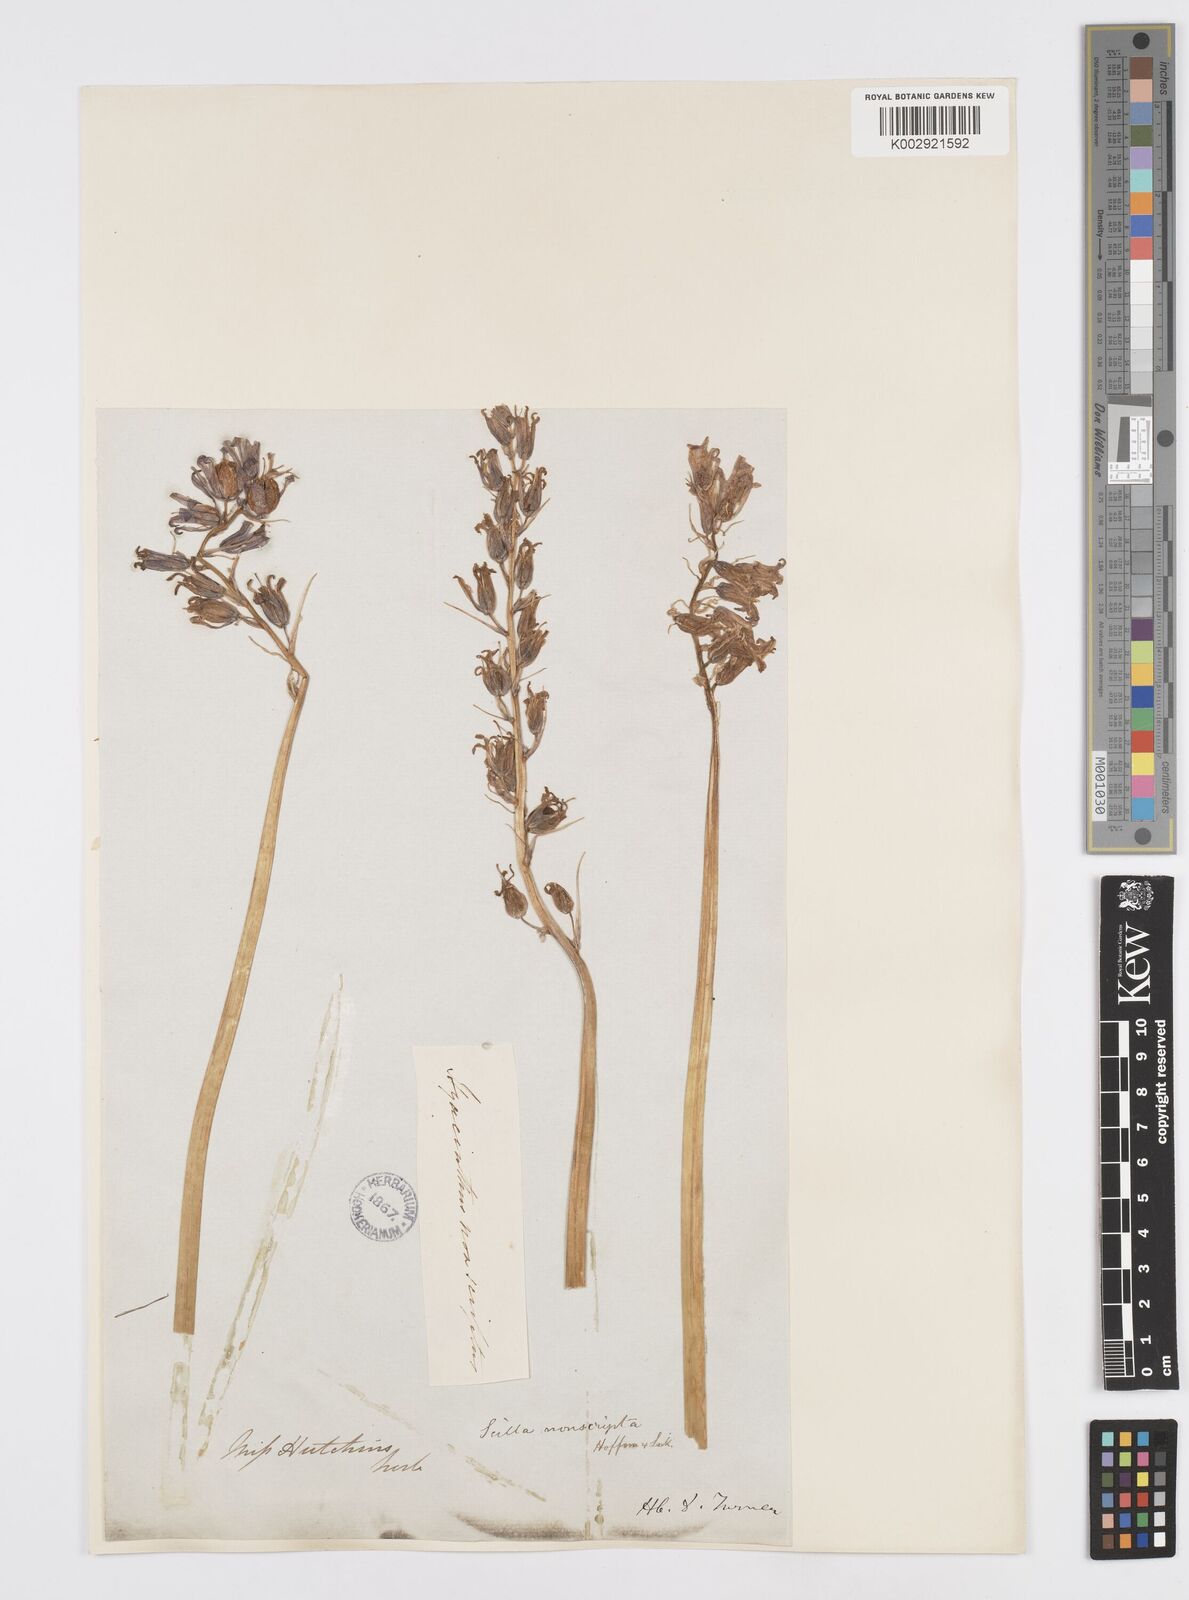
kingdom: Plantae
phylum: Tracheophyta
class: Liliopsida
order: Asparagales
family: Asparagaceae
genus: Hyacinthoides
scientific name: Hyacinthoides non-scripta
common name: Bluebell
